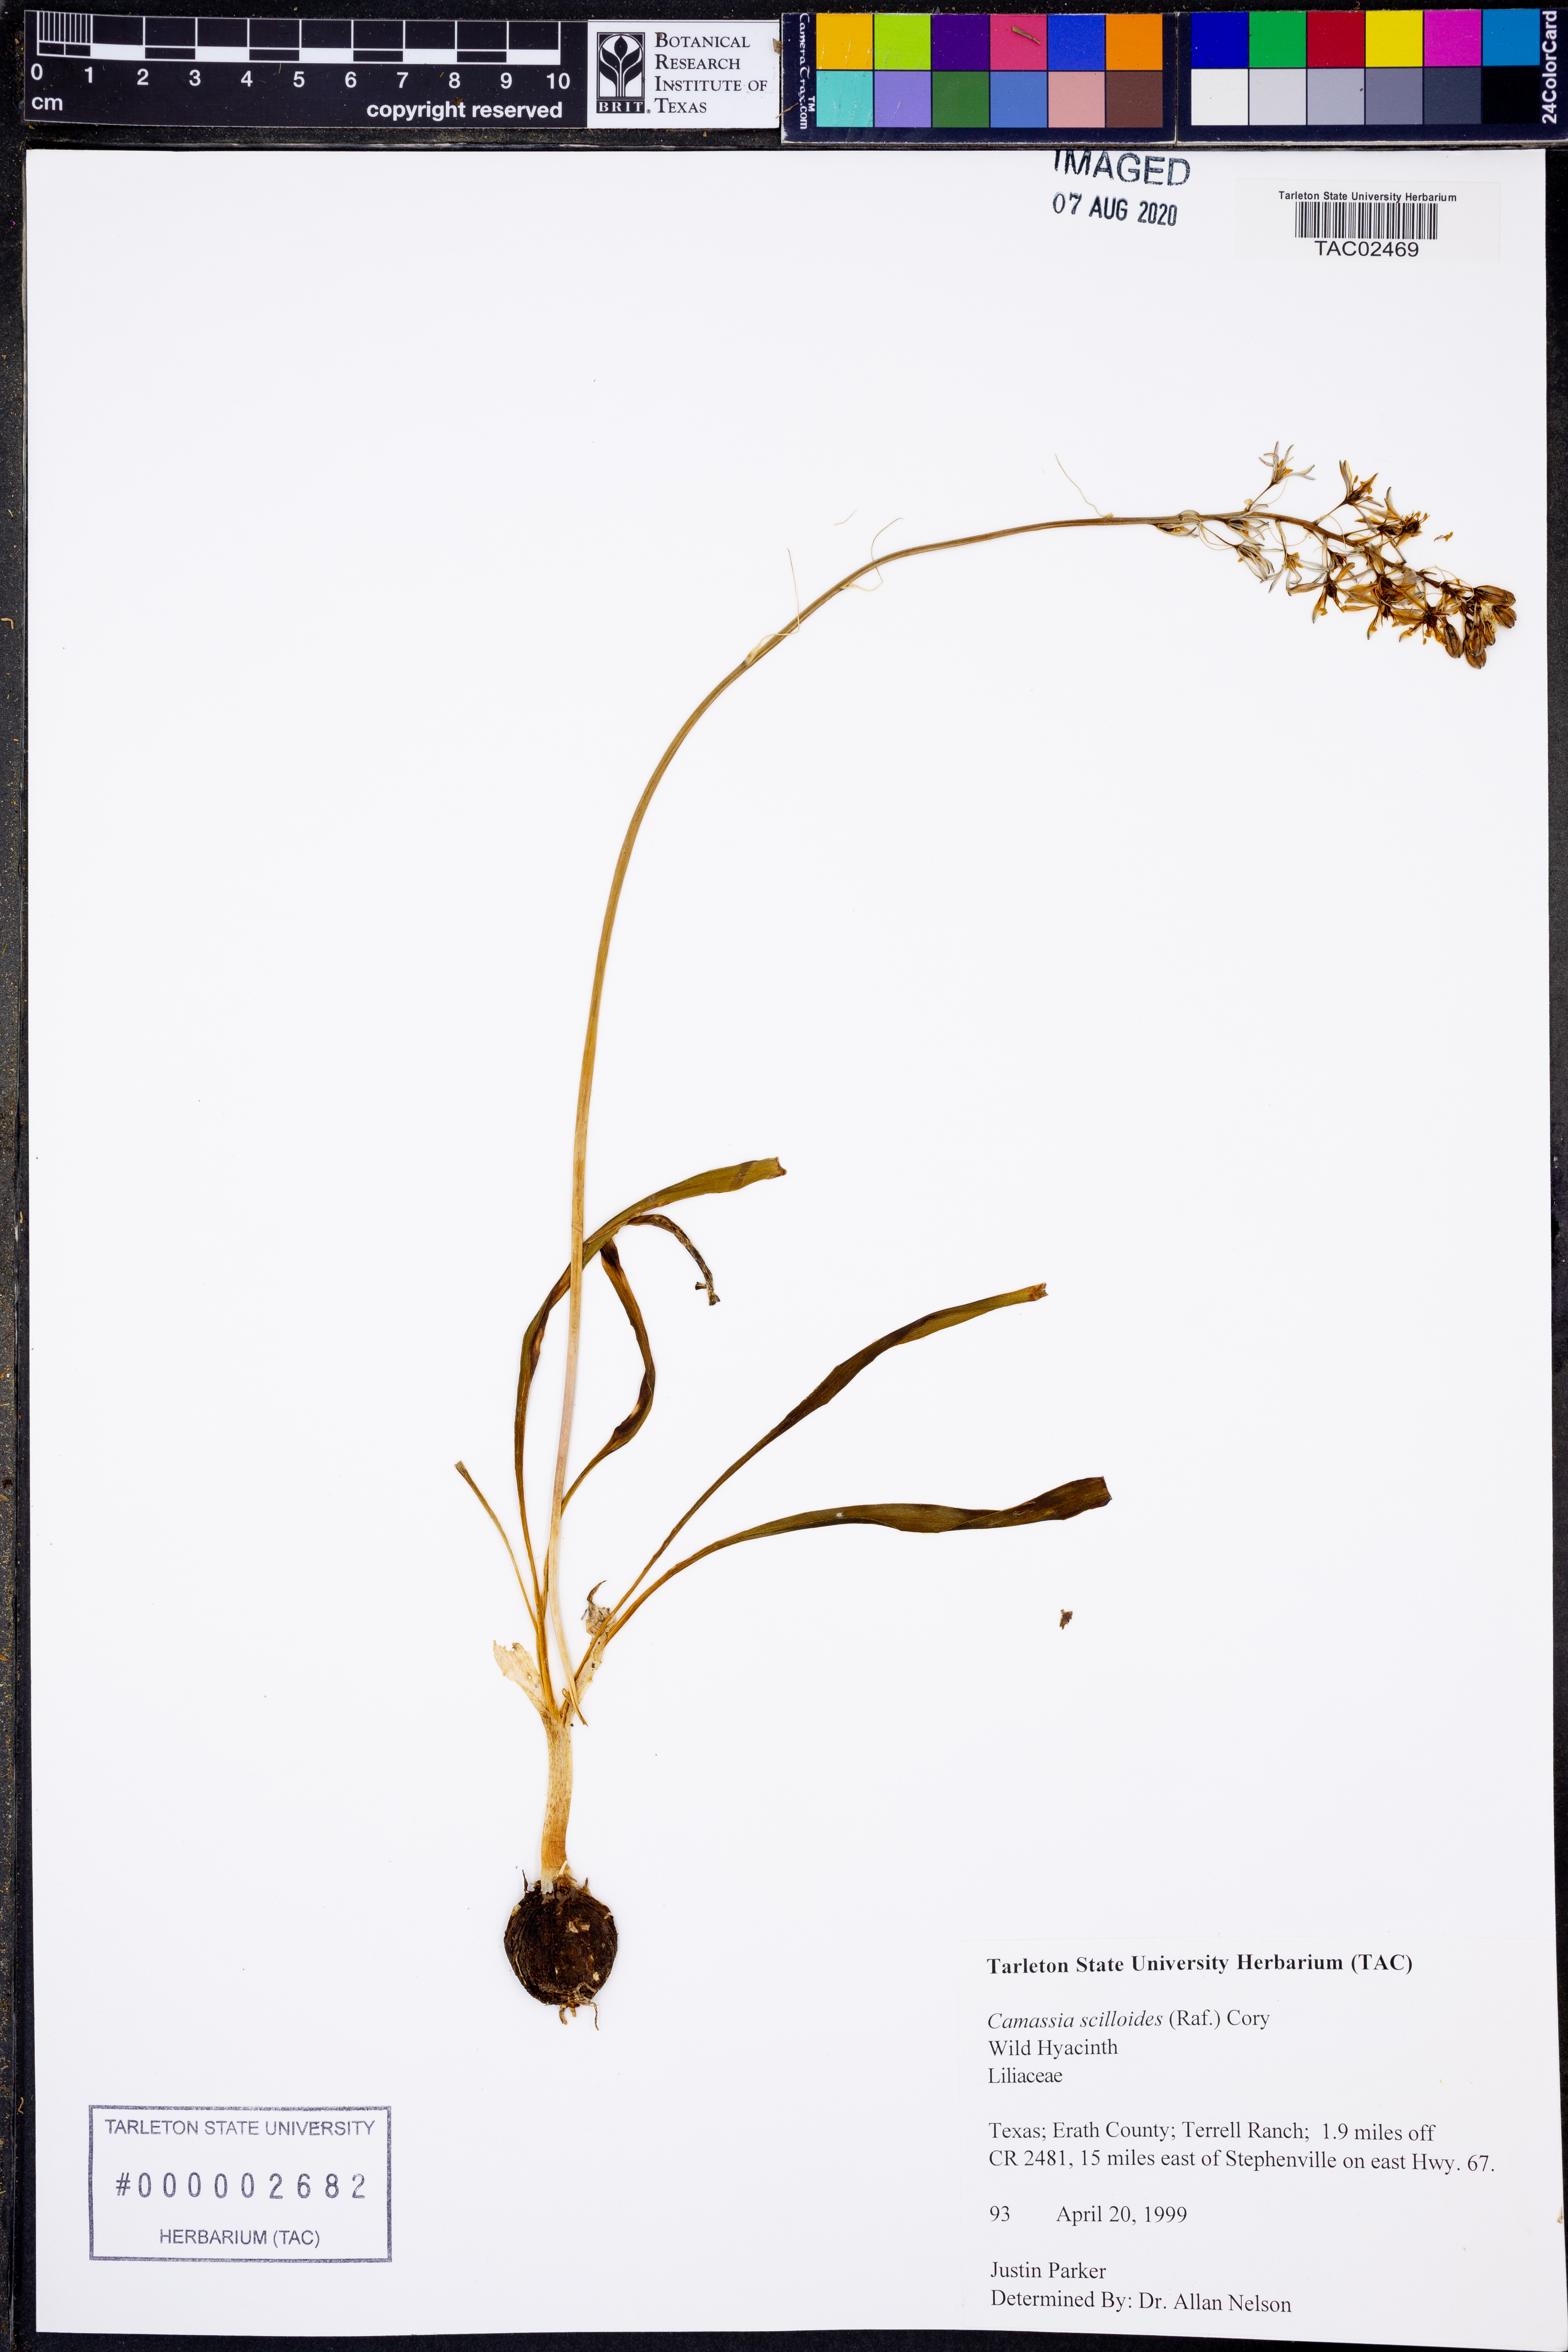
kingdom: Plantae
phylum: Tracheophyta
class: Liliopsida
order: Asparagales
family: Asparagaceae
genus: Camassia
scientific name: Camassia scilloides
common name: Wild hyacinth
